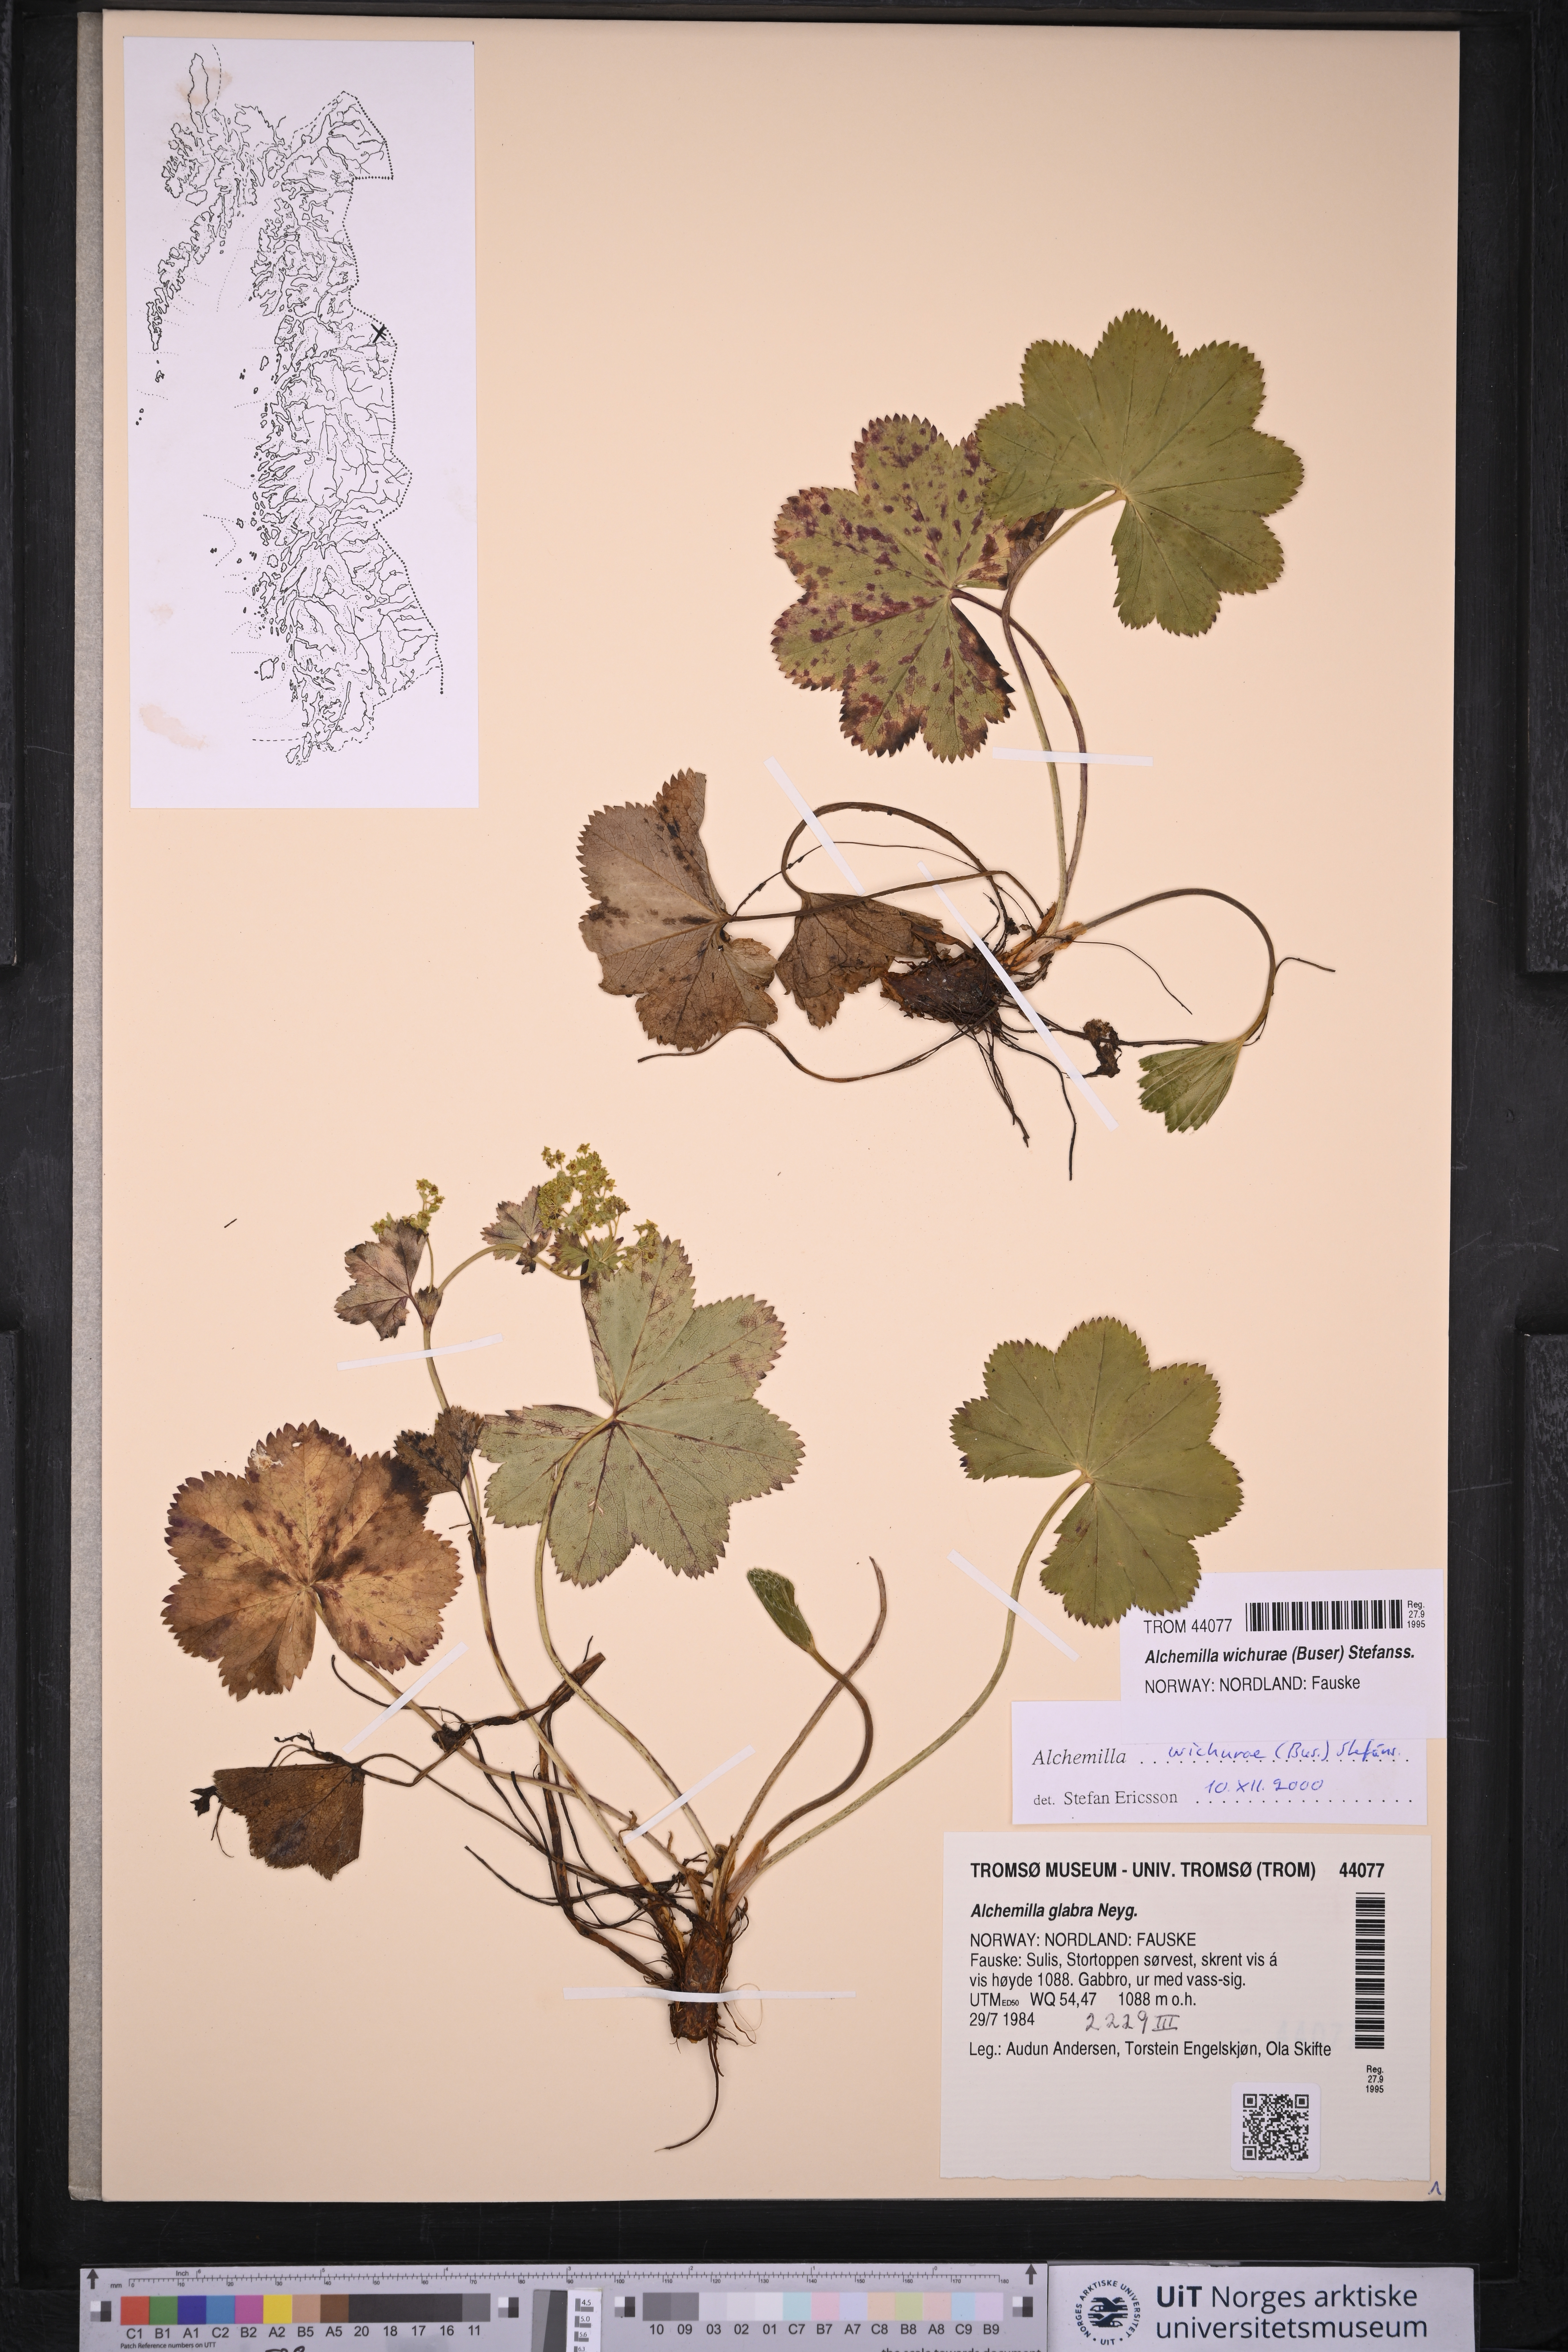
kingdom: Plantae
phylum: Tracheophyta
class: Magnoliopsida
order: Rosales
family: Rosaceae
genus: Alchemilla
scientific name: Alchemilla wichurae
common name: Rock lady's mantle
